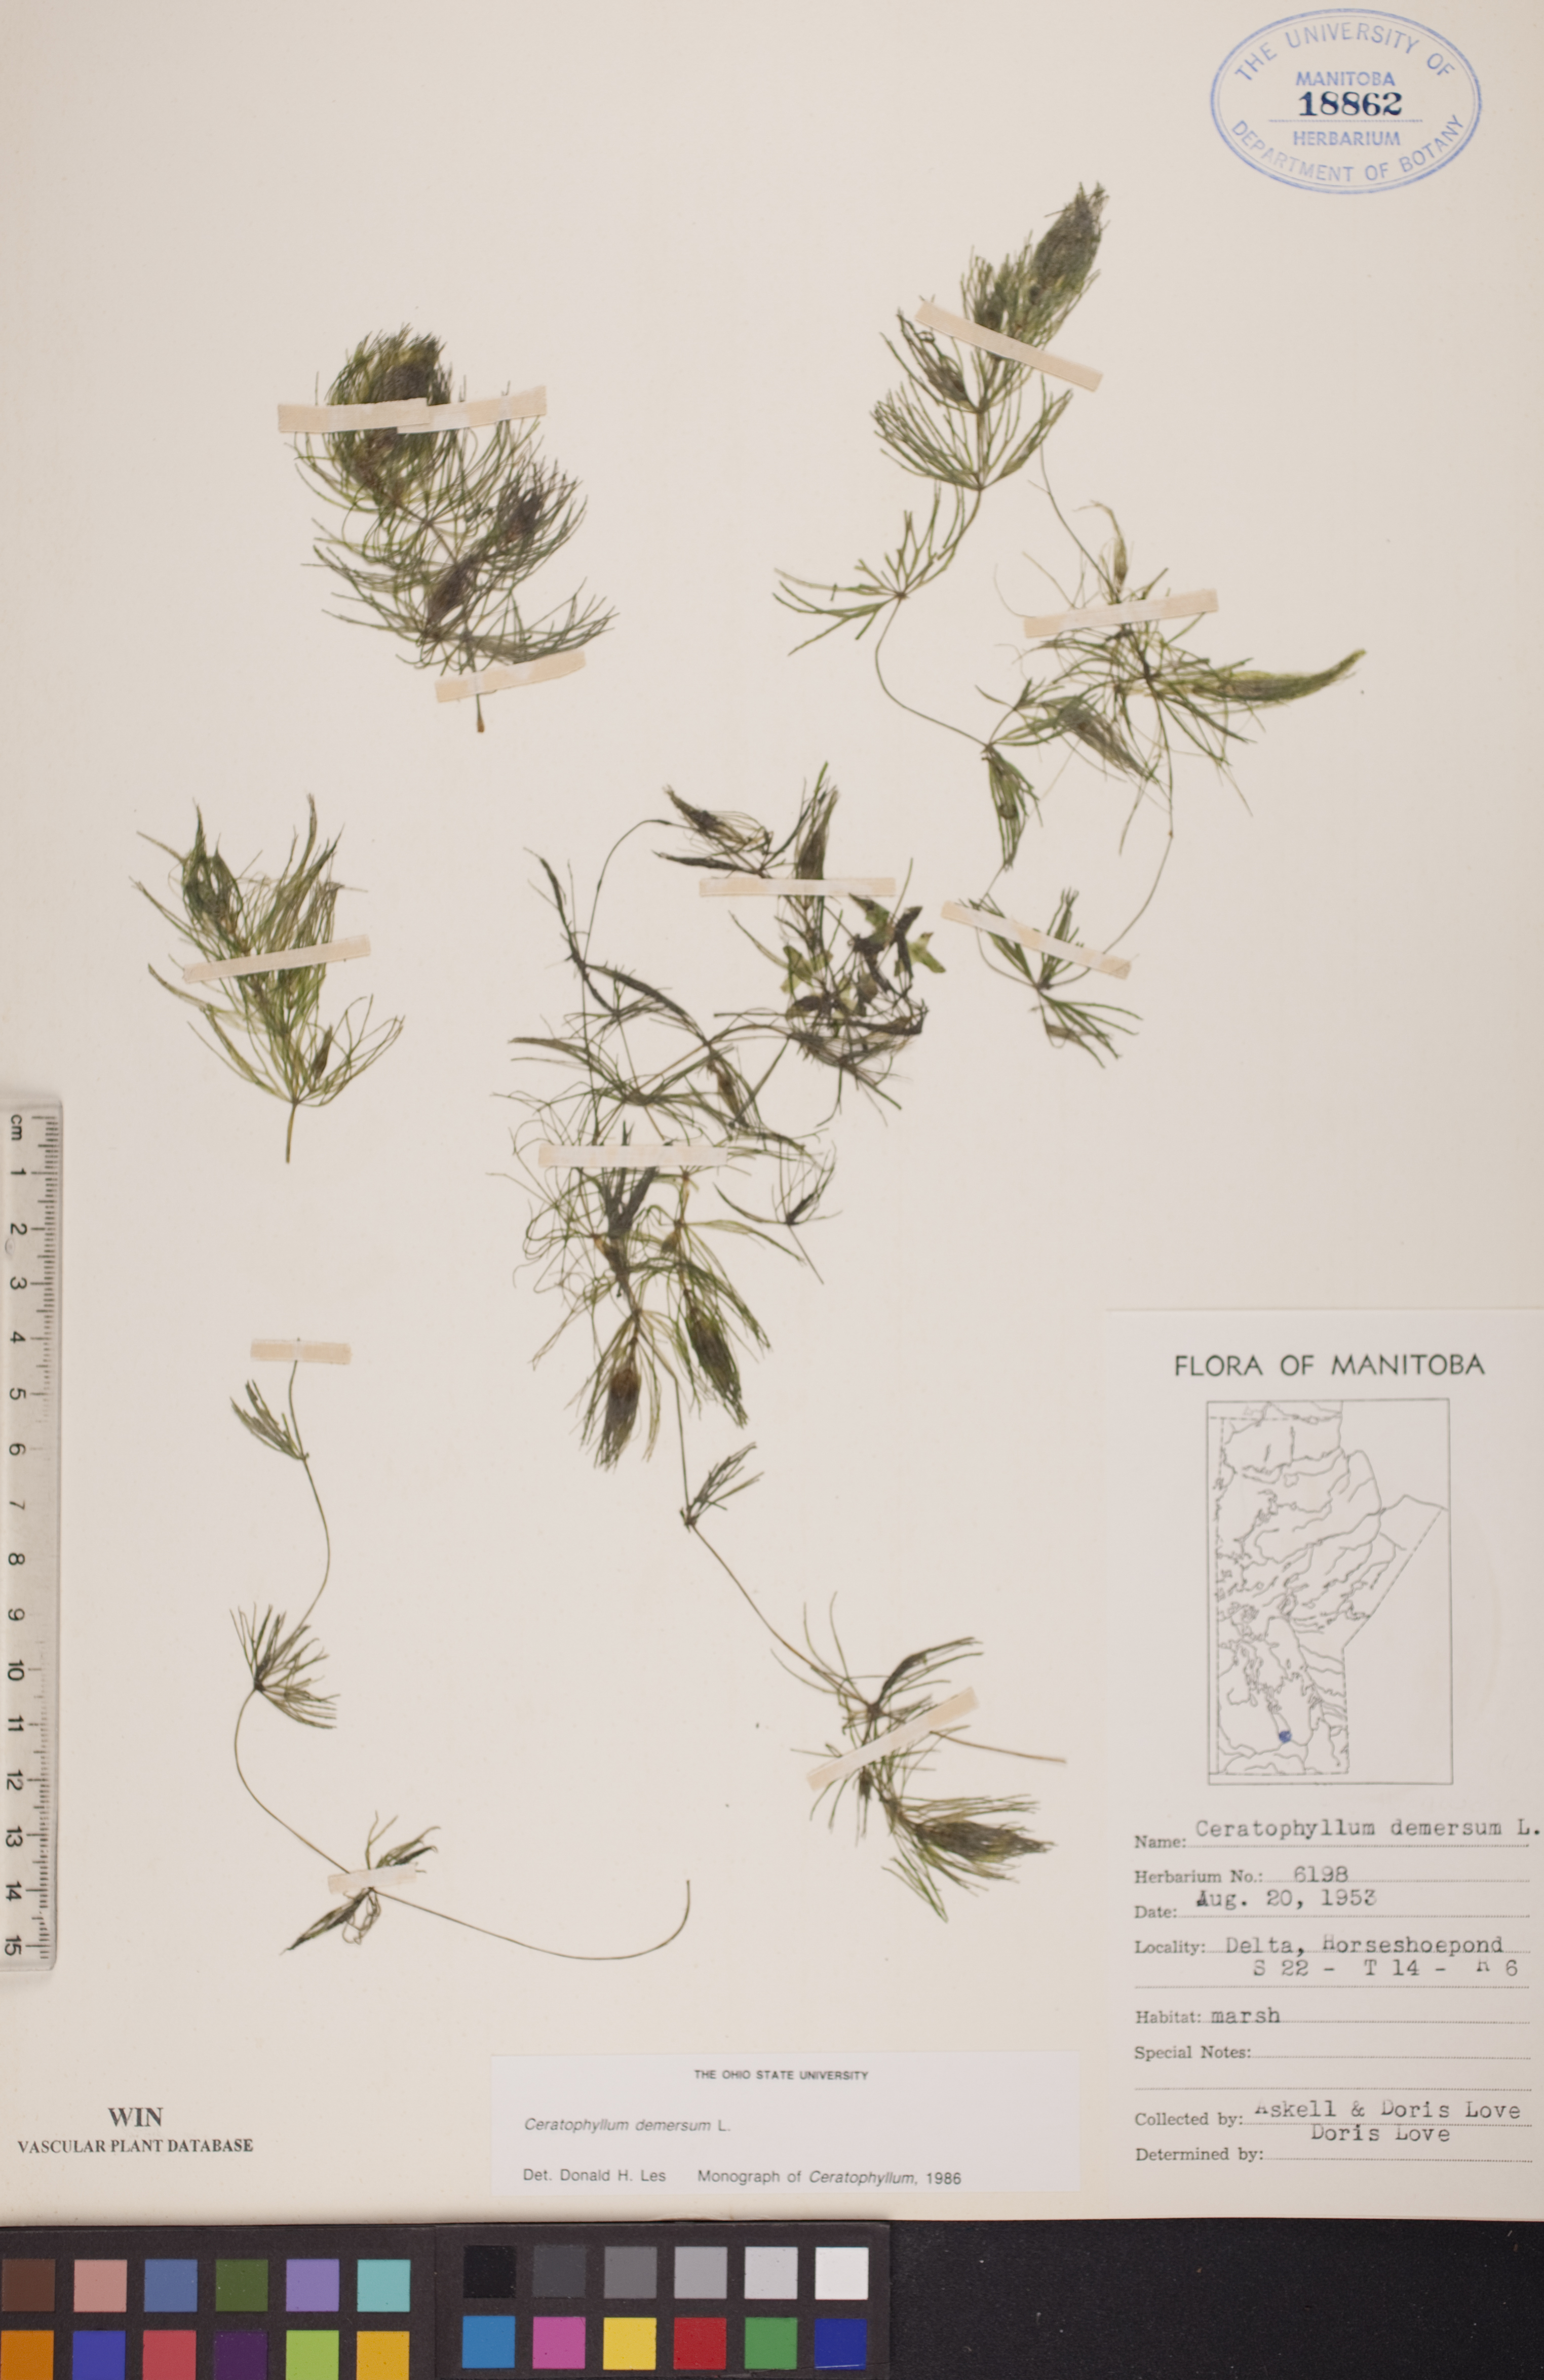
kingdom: Plantae
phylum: Tracheophyta
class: Magnoliopsida
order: Ceratophyllales
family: Ceratophyllaceae
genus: Ceratophyllum
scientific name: Ceratophyllum demersum
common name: Rigid hornwort
